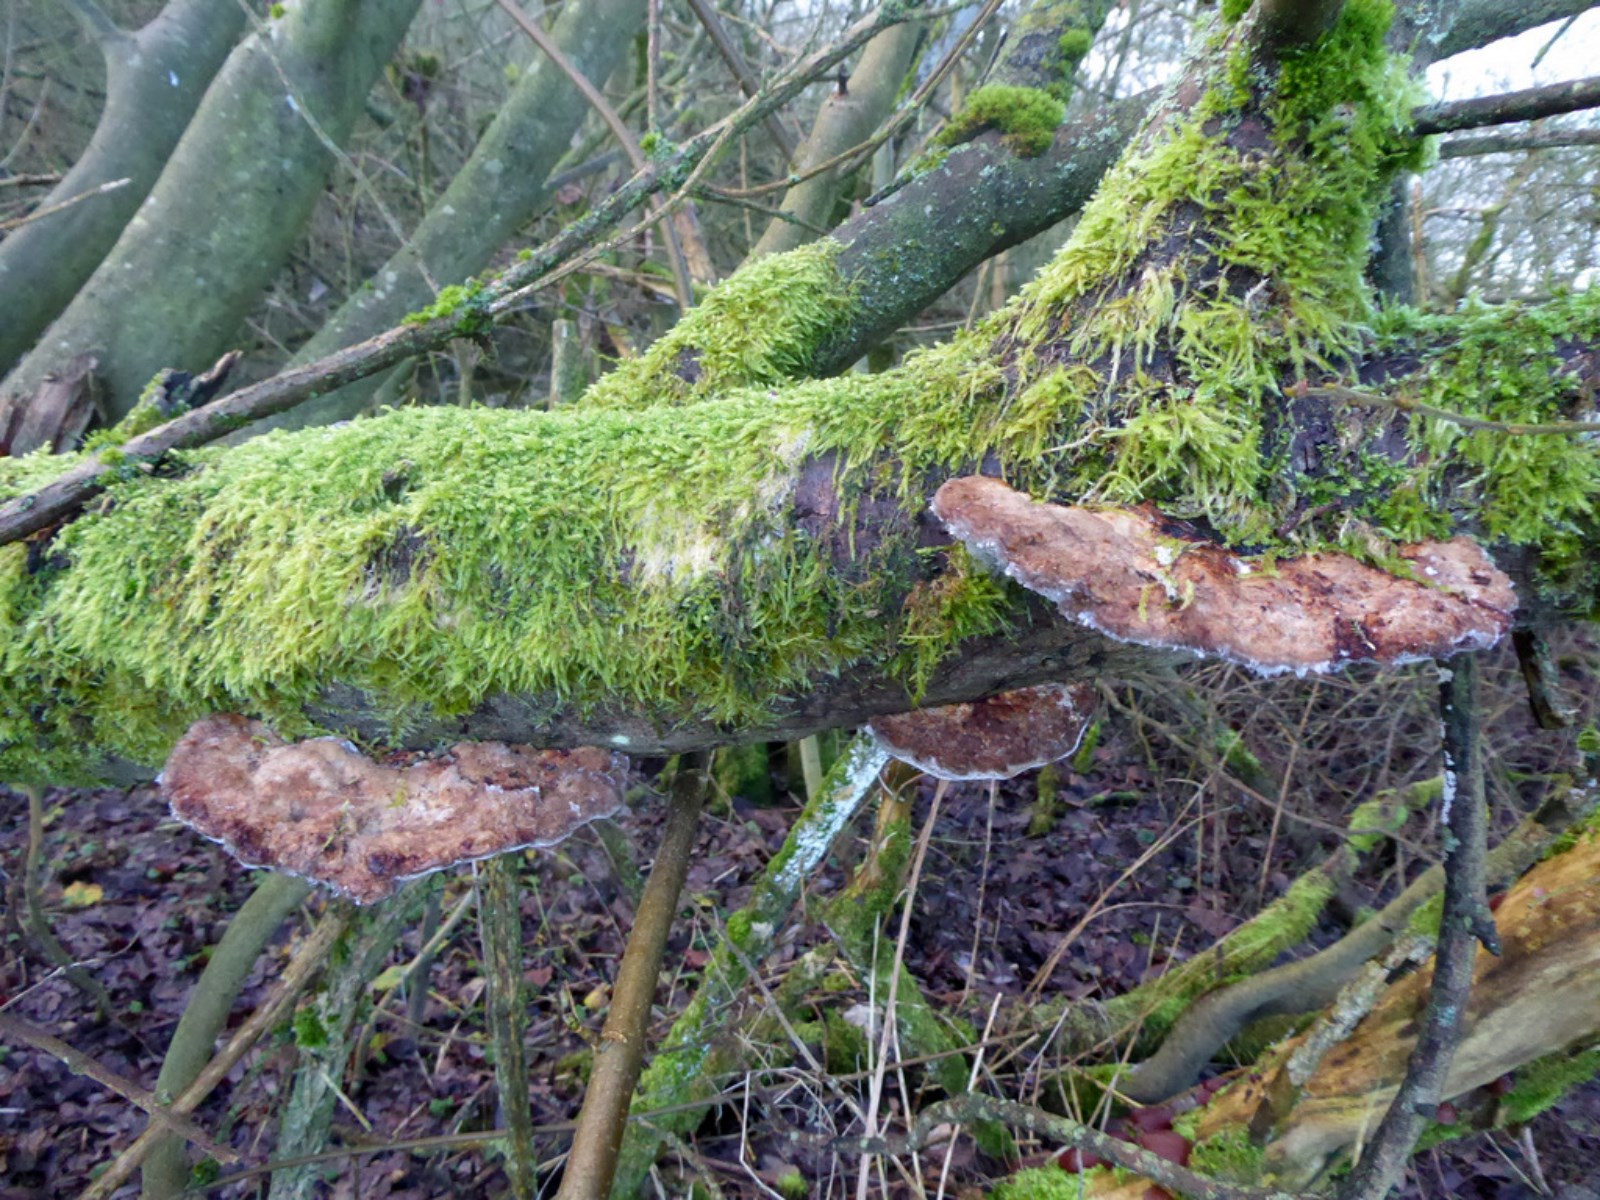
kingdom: Fungi
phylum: Basidiomycota
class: Agaricomycetes
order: Polyporales
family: Polyporaceae
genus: Daedaleopsis
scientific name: Daedaleopsis confragosa
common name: rødmende læderporesvamp
